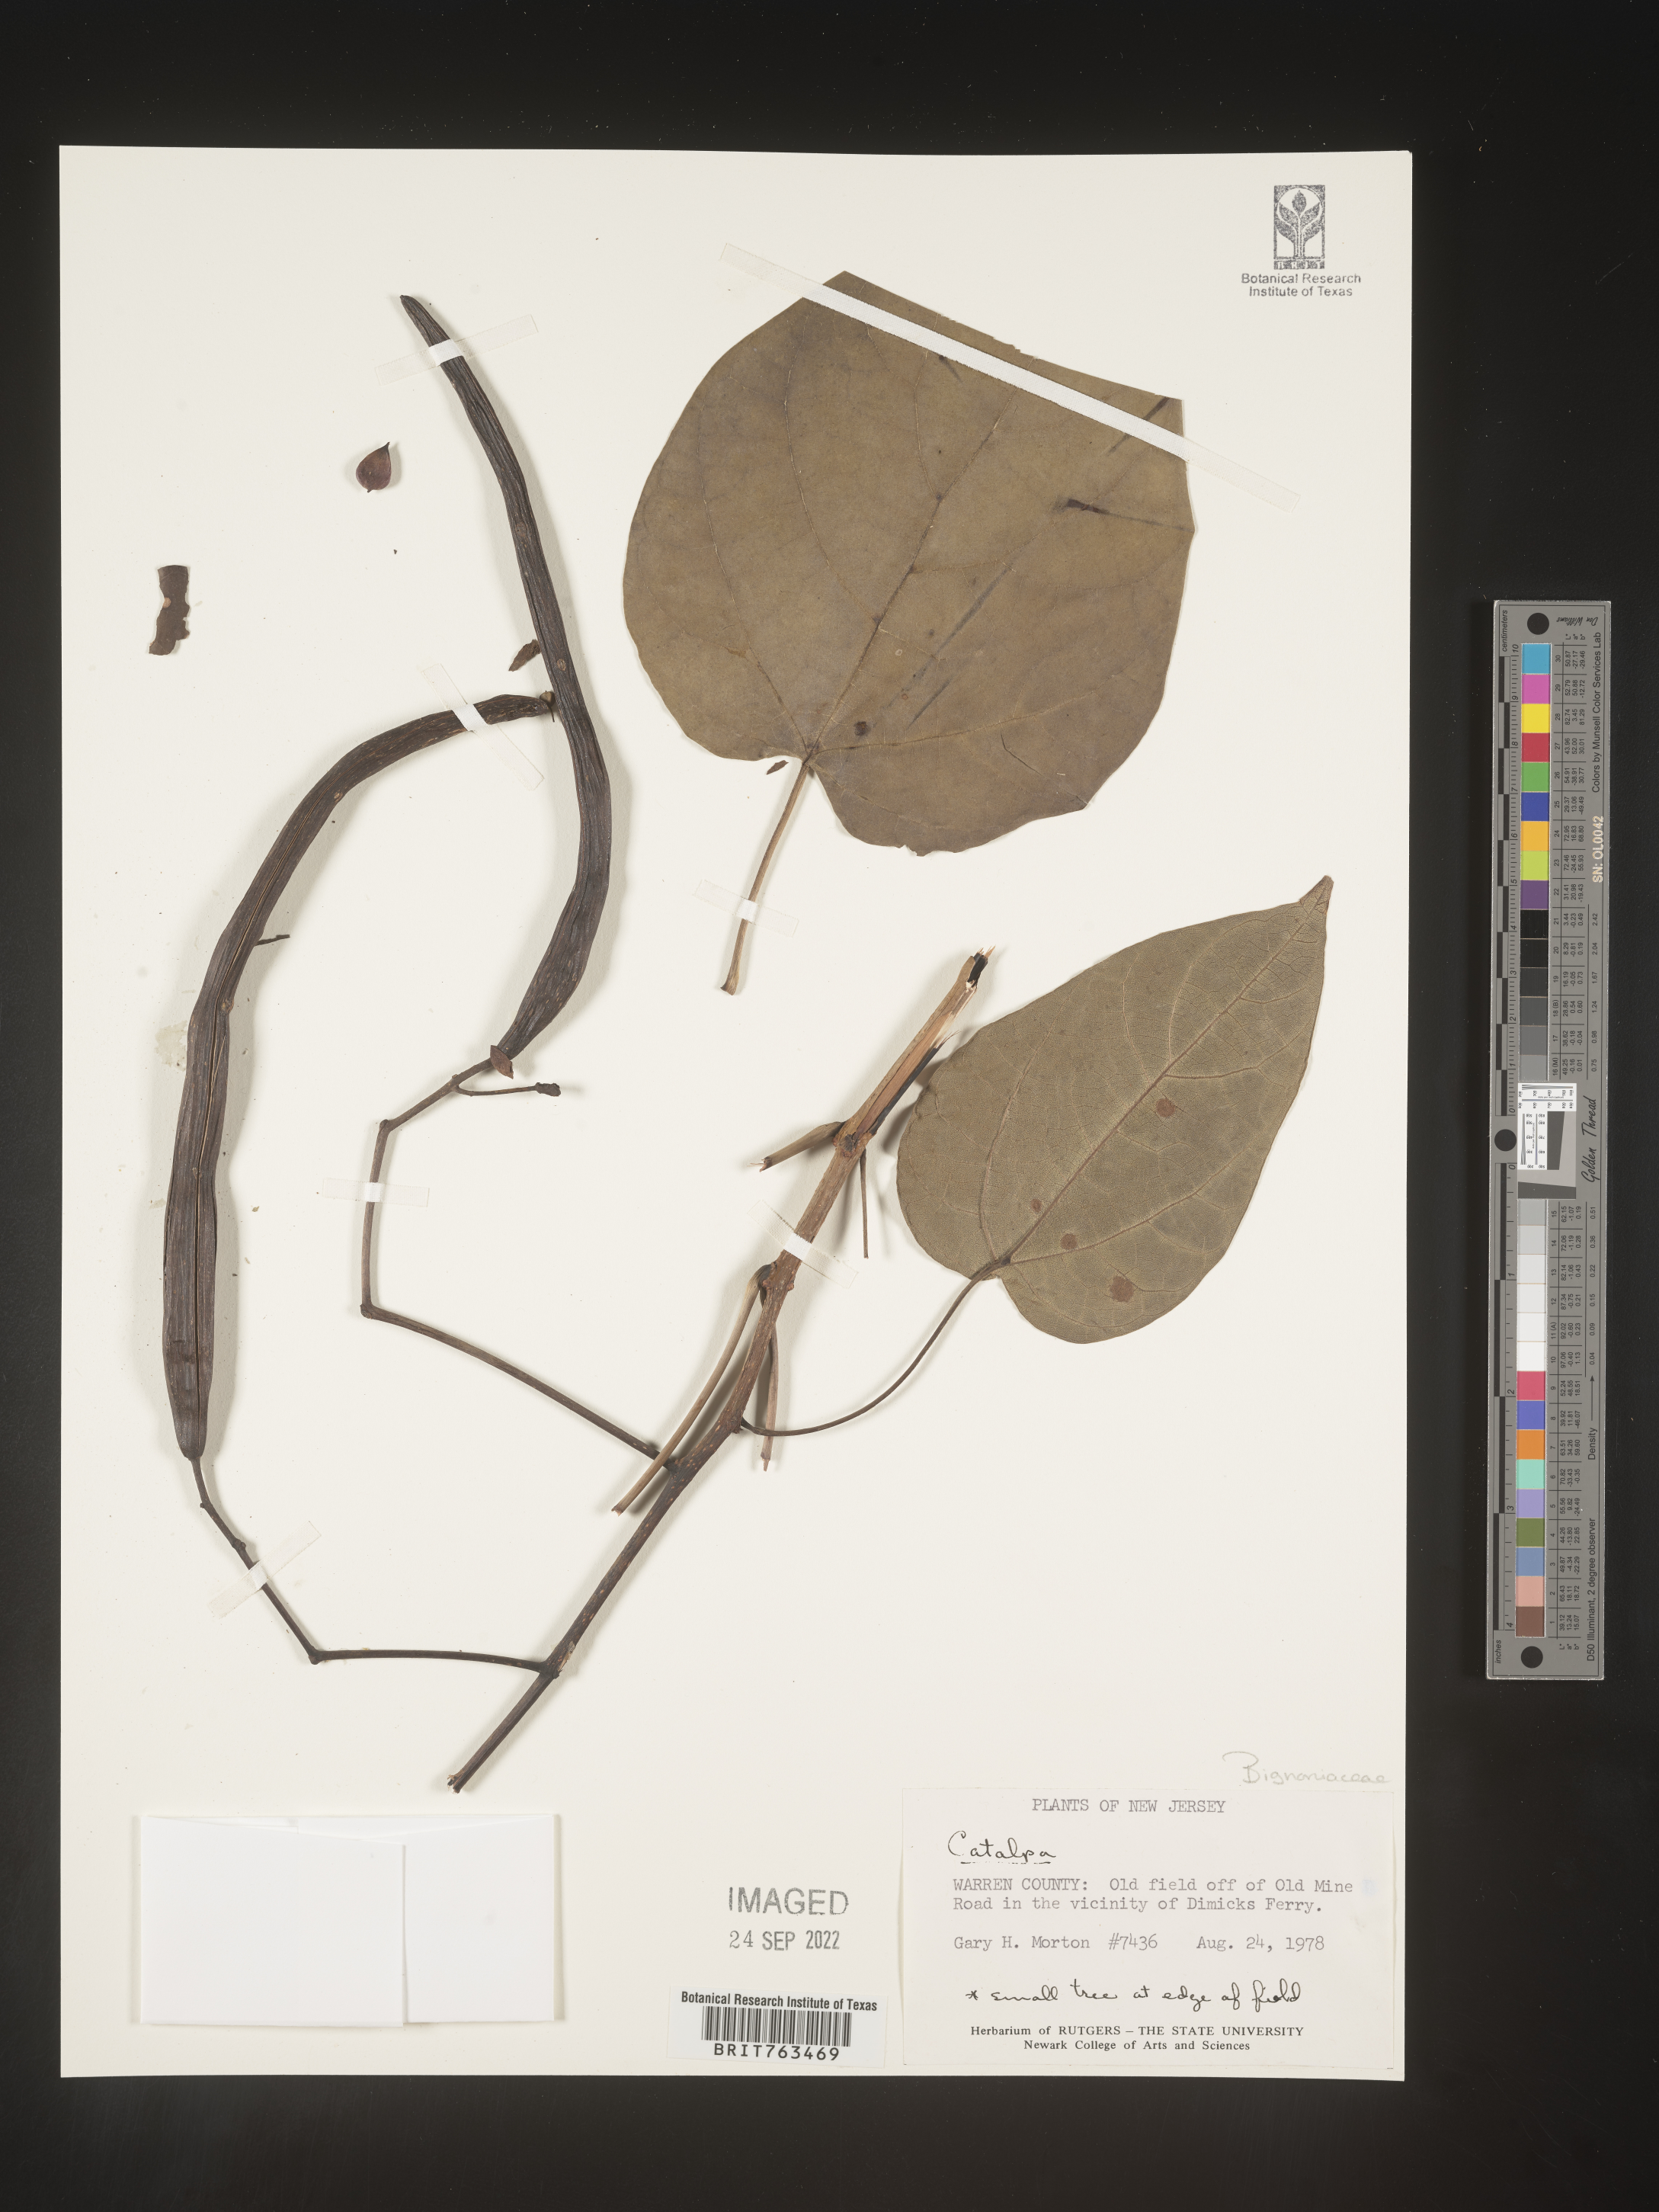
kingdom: Plantae
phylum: Tracheophyta
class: Magnoliopsida
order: Lamiales
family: Bignoniaceae
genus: Catalpa
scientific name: Catalpa speciosa
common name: Northern catalpa
